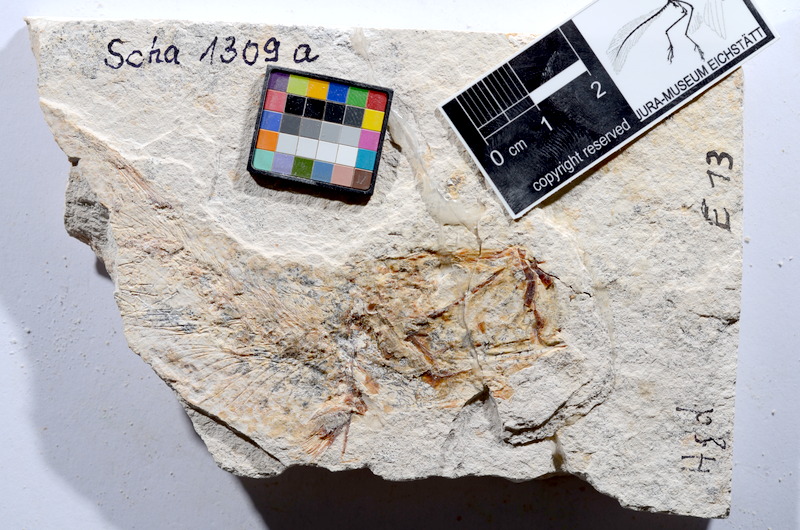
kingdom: Animalia
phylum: Chordata
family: Ascalaboidae
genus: Tharsis
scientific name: Tharsis dubius
